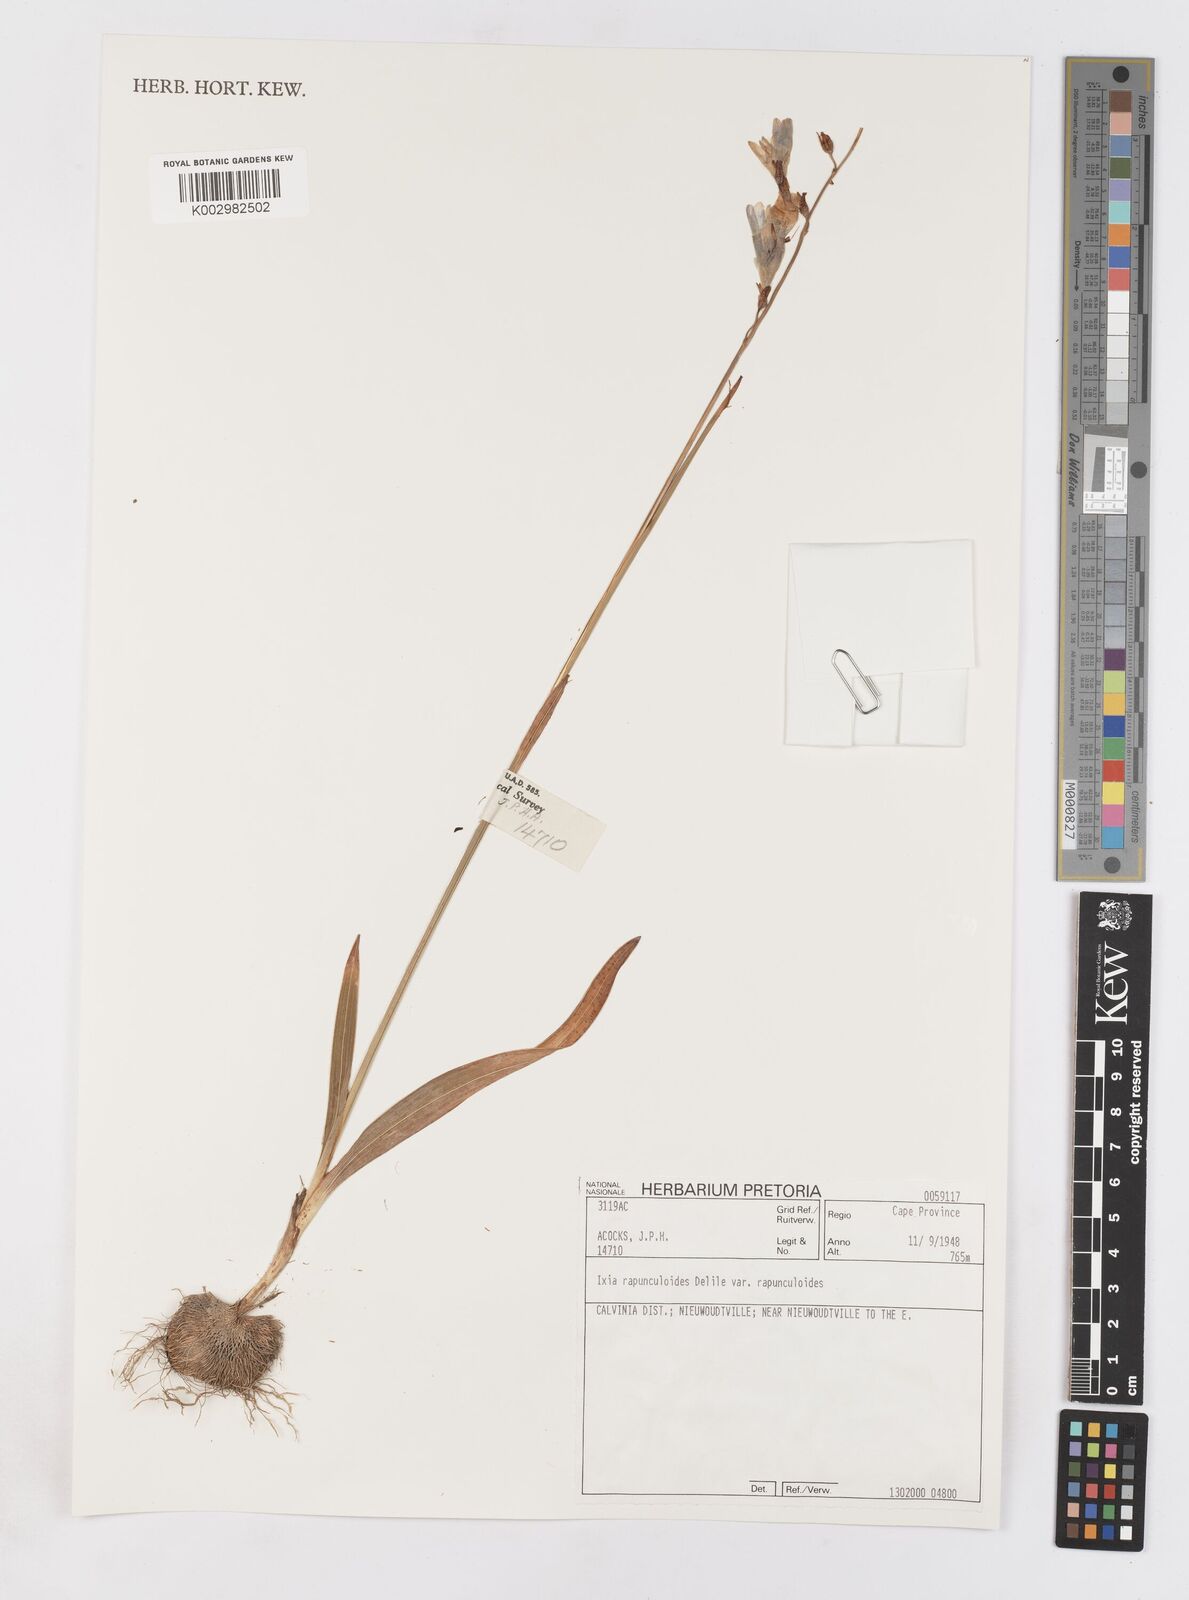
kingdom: Plantae
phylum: Tracheophyta
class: Liliopsida
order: Asparagales
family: Iridaceae
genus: Ixia
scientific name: Ixia rapunculoides
